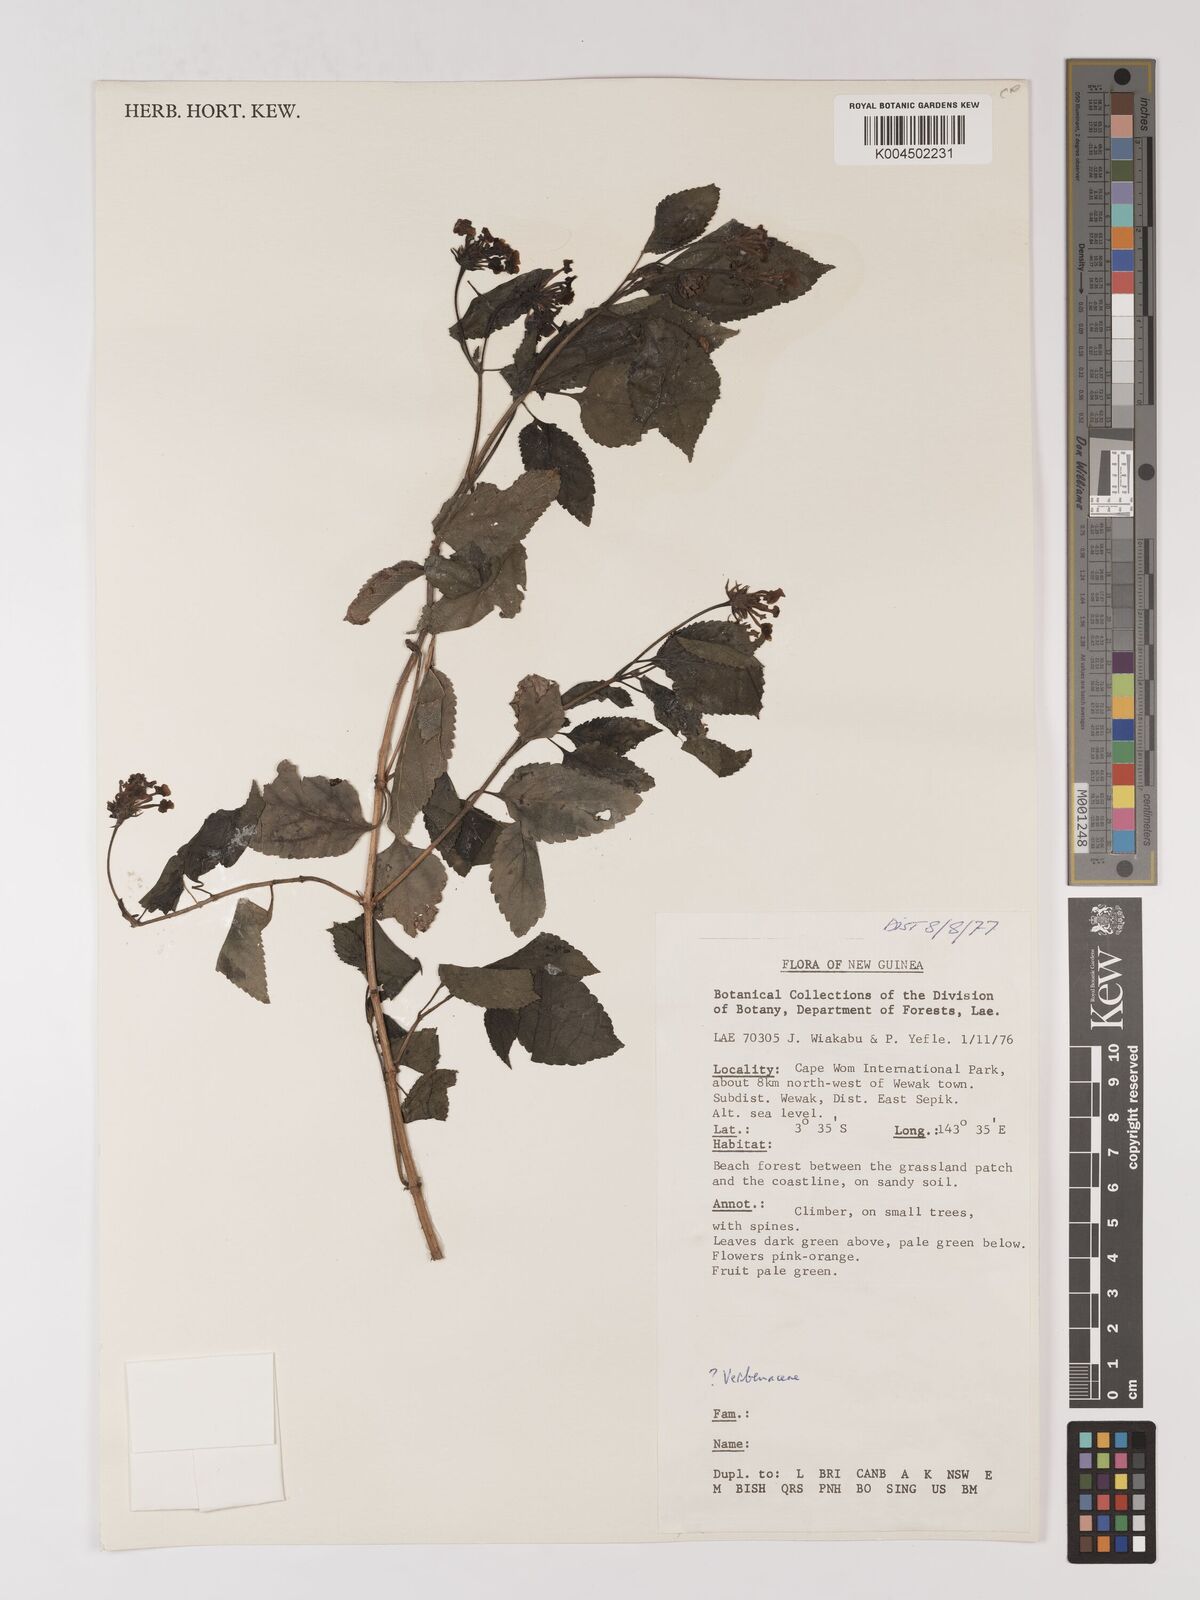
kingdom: Plantae
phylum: Tracheophyta
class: Magnoliopsida
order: Lamiales
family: Verbenaceae
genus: Lantana
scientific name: Lantana camara
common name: Lantana
